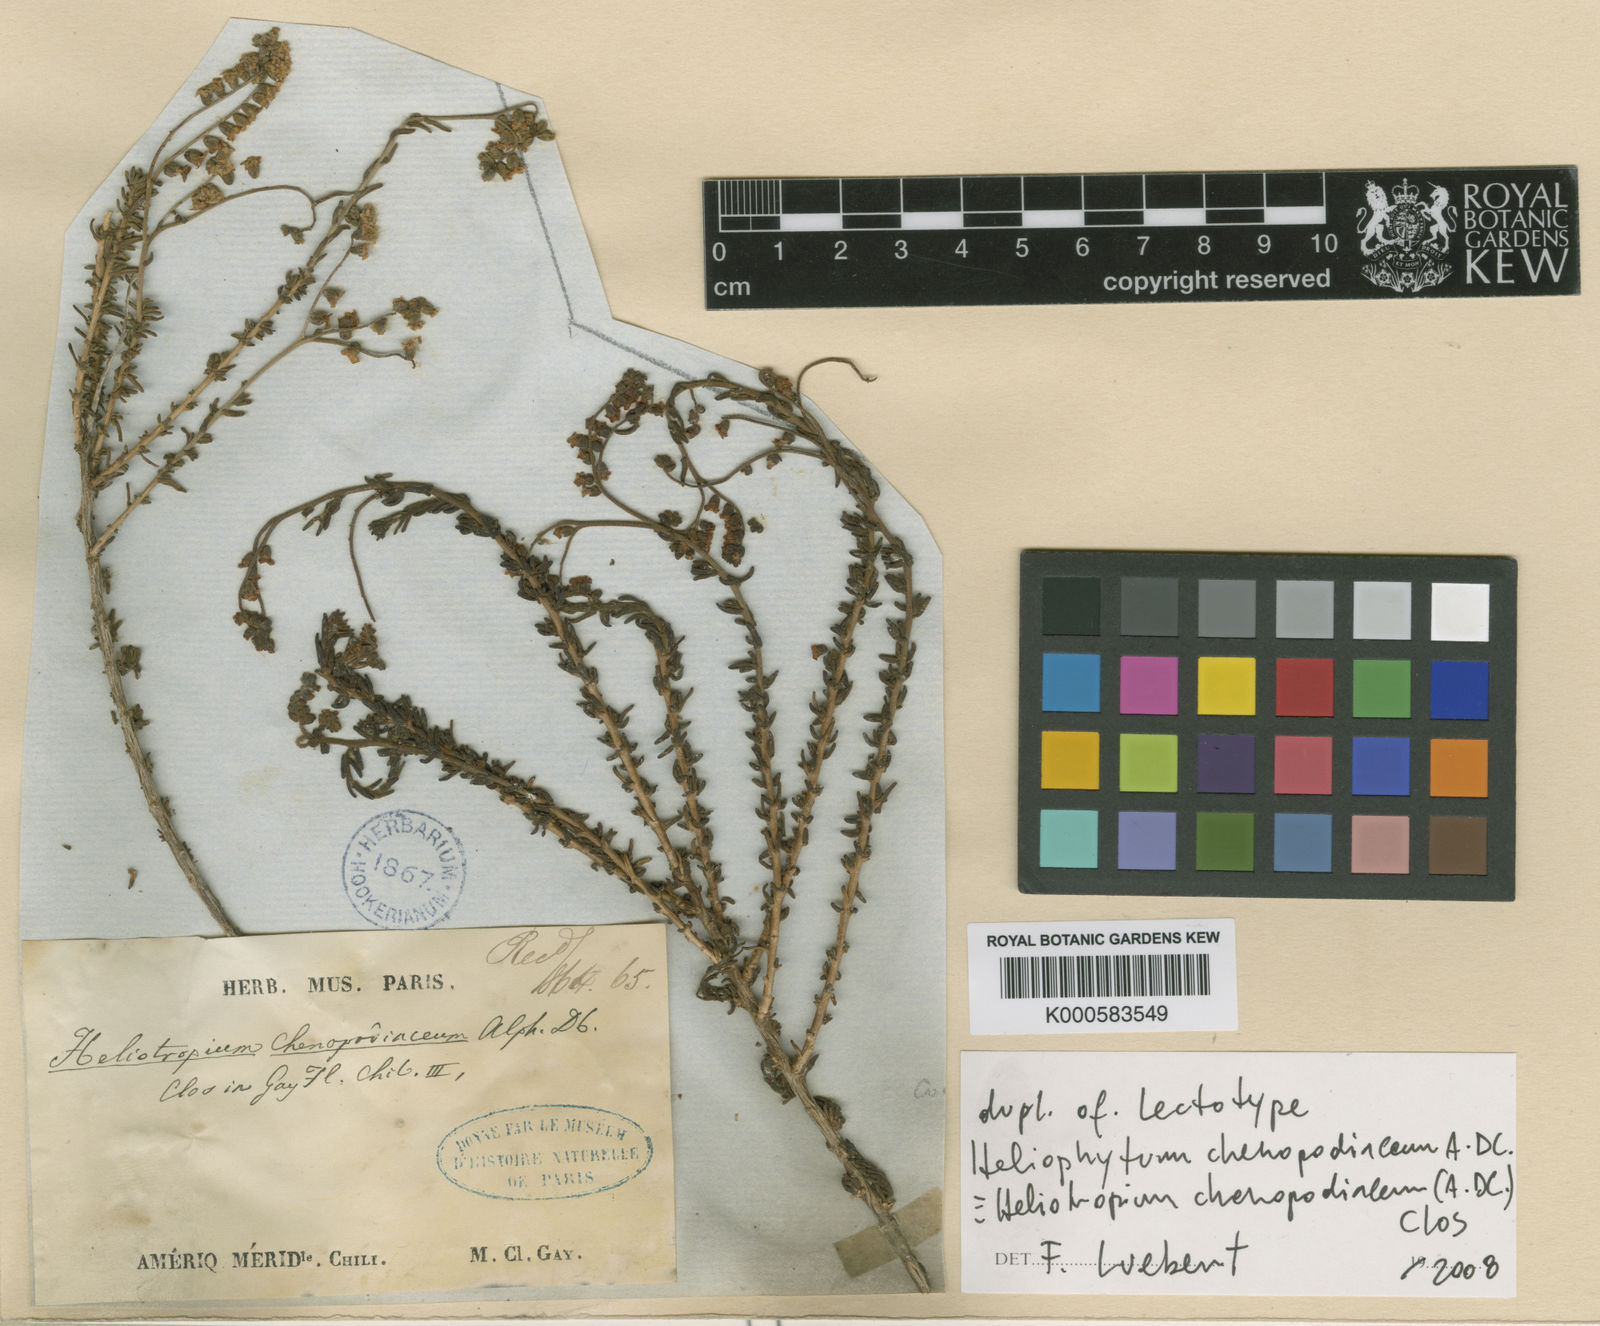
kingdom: Plantae
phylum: Tracheophyta
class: Magnoliopsida
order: Boraginales
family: Heliotropiaceae
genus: Heliotropium
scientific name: Heliotropium chenopodiaceum
